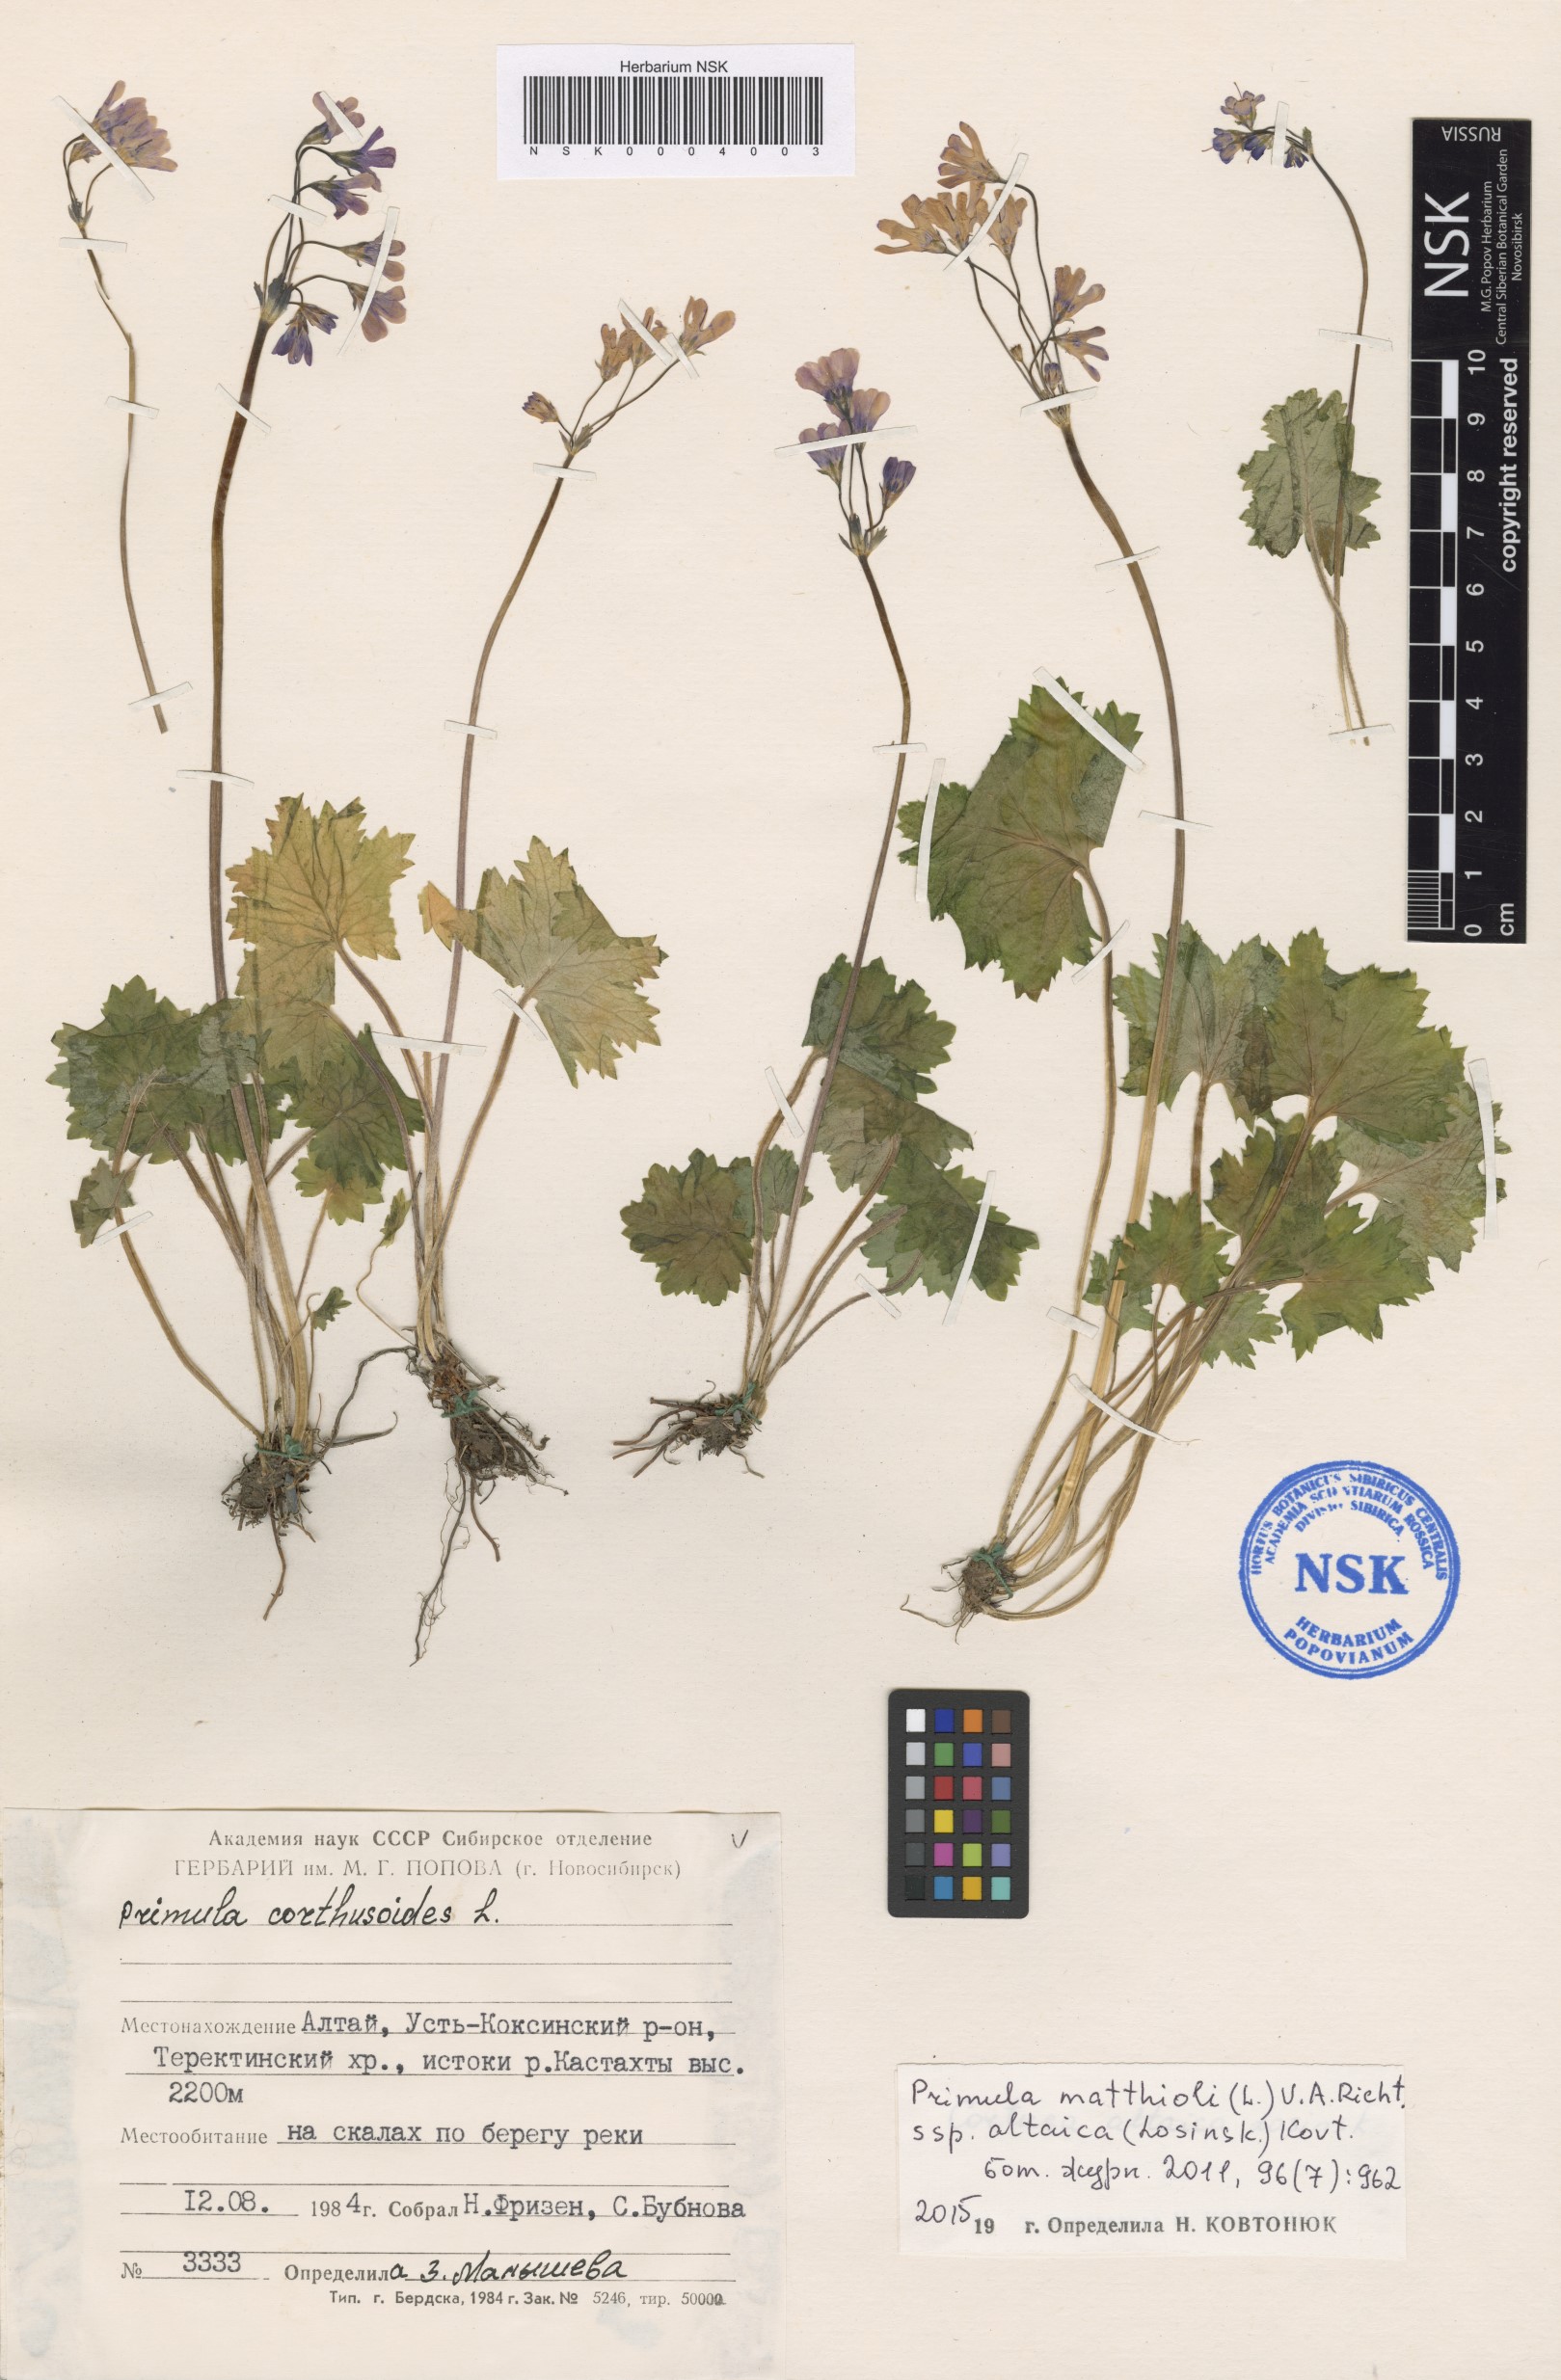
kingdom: Plantae
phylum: Tracheophyta
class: Magnoliopsida
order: Ericales
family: Primulaceae
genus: Primula
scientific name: Primula matthioli
